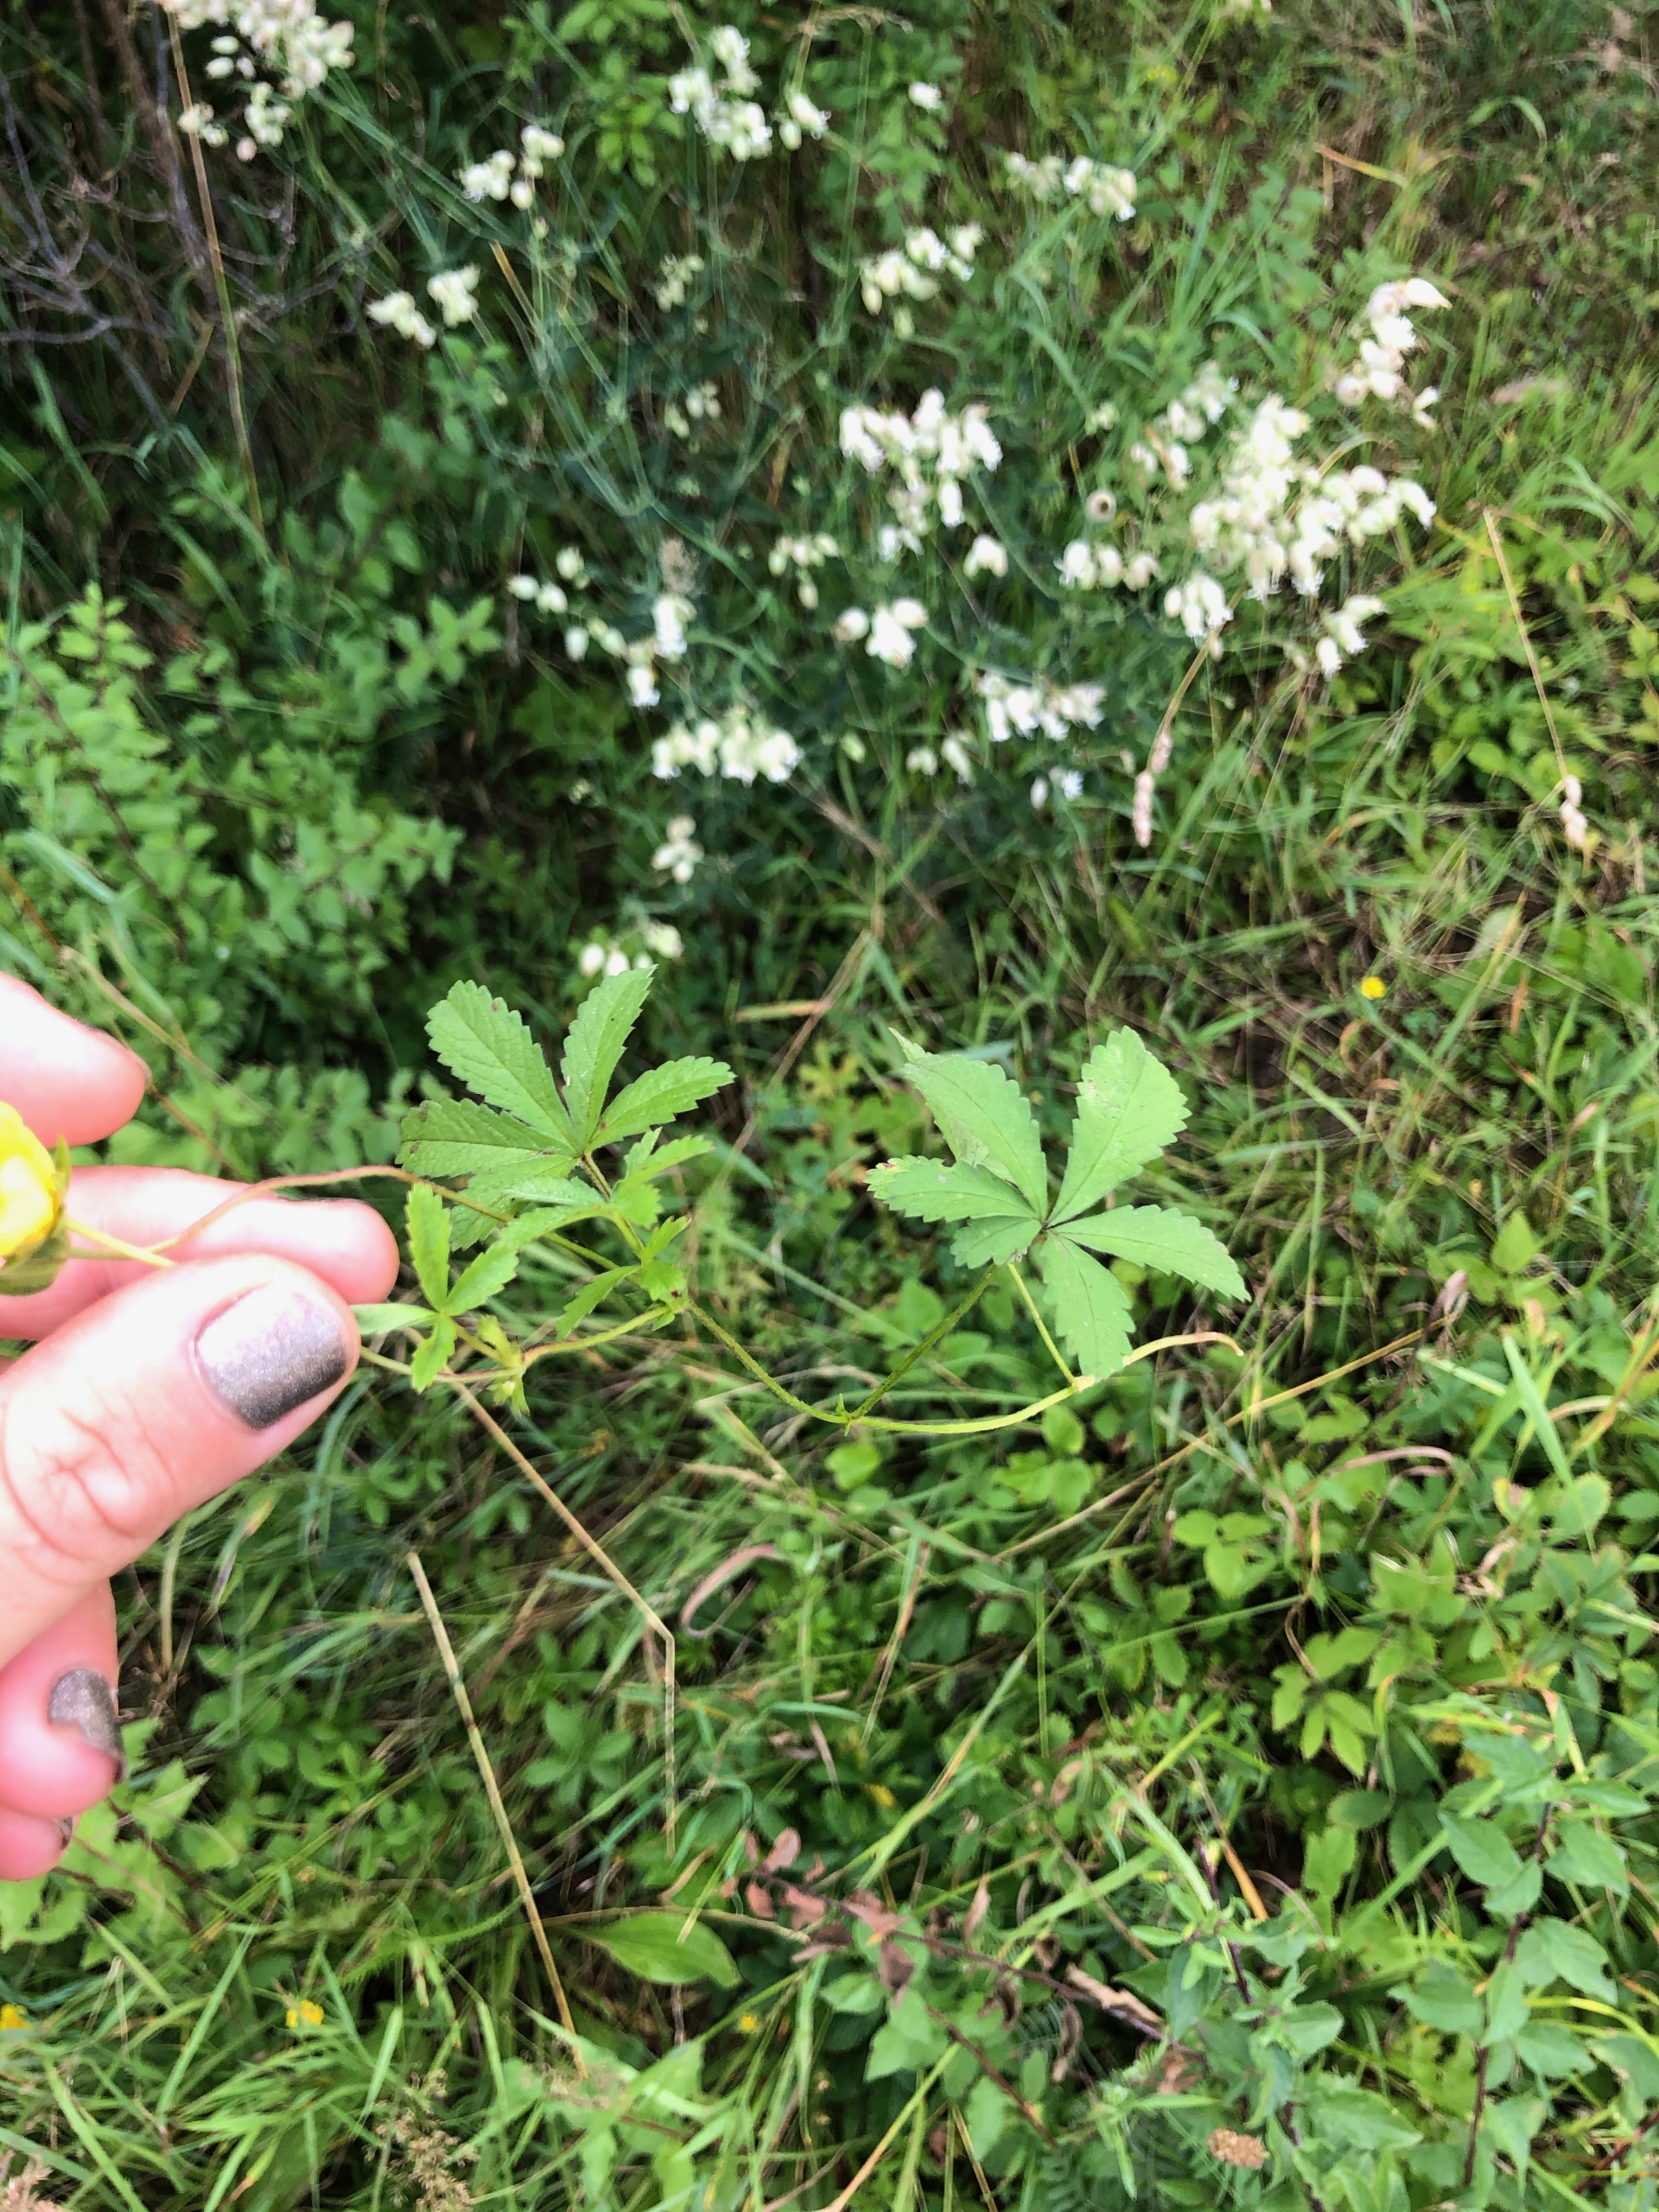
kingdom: Plantae
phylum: Tracheophyta
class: Magnoliopsida
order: Rosales
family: Rosaceae
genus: Potentilla
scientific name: Potentilla reptans
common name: Krybende potentil
